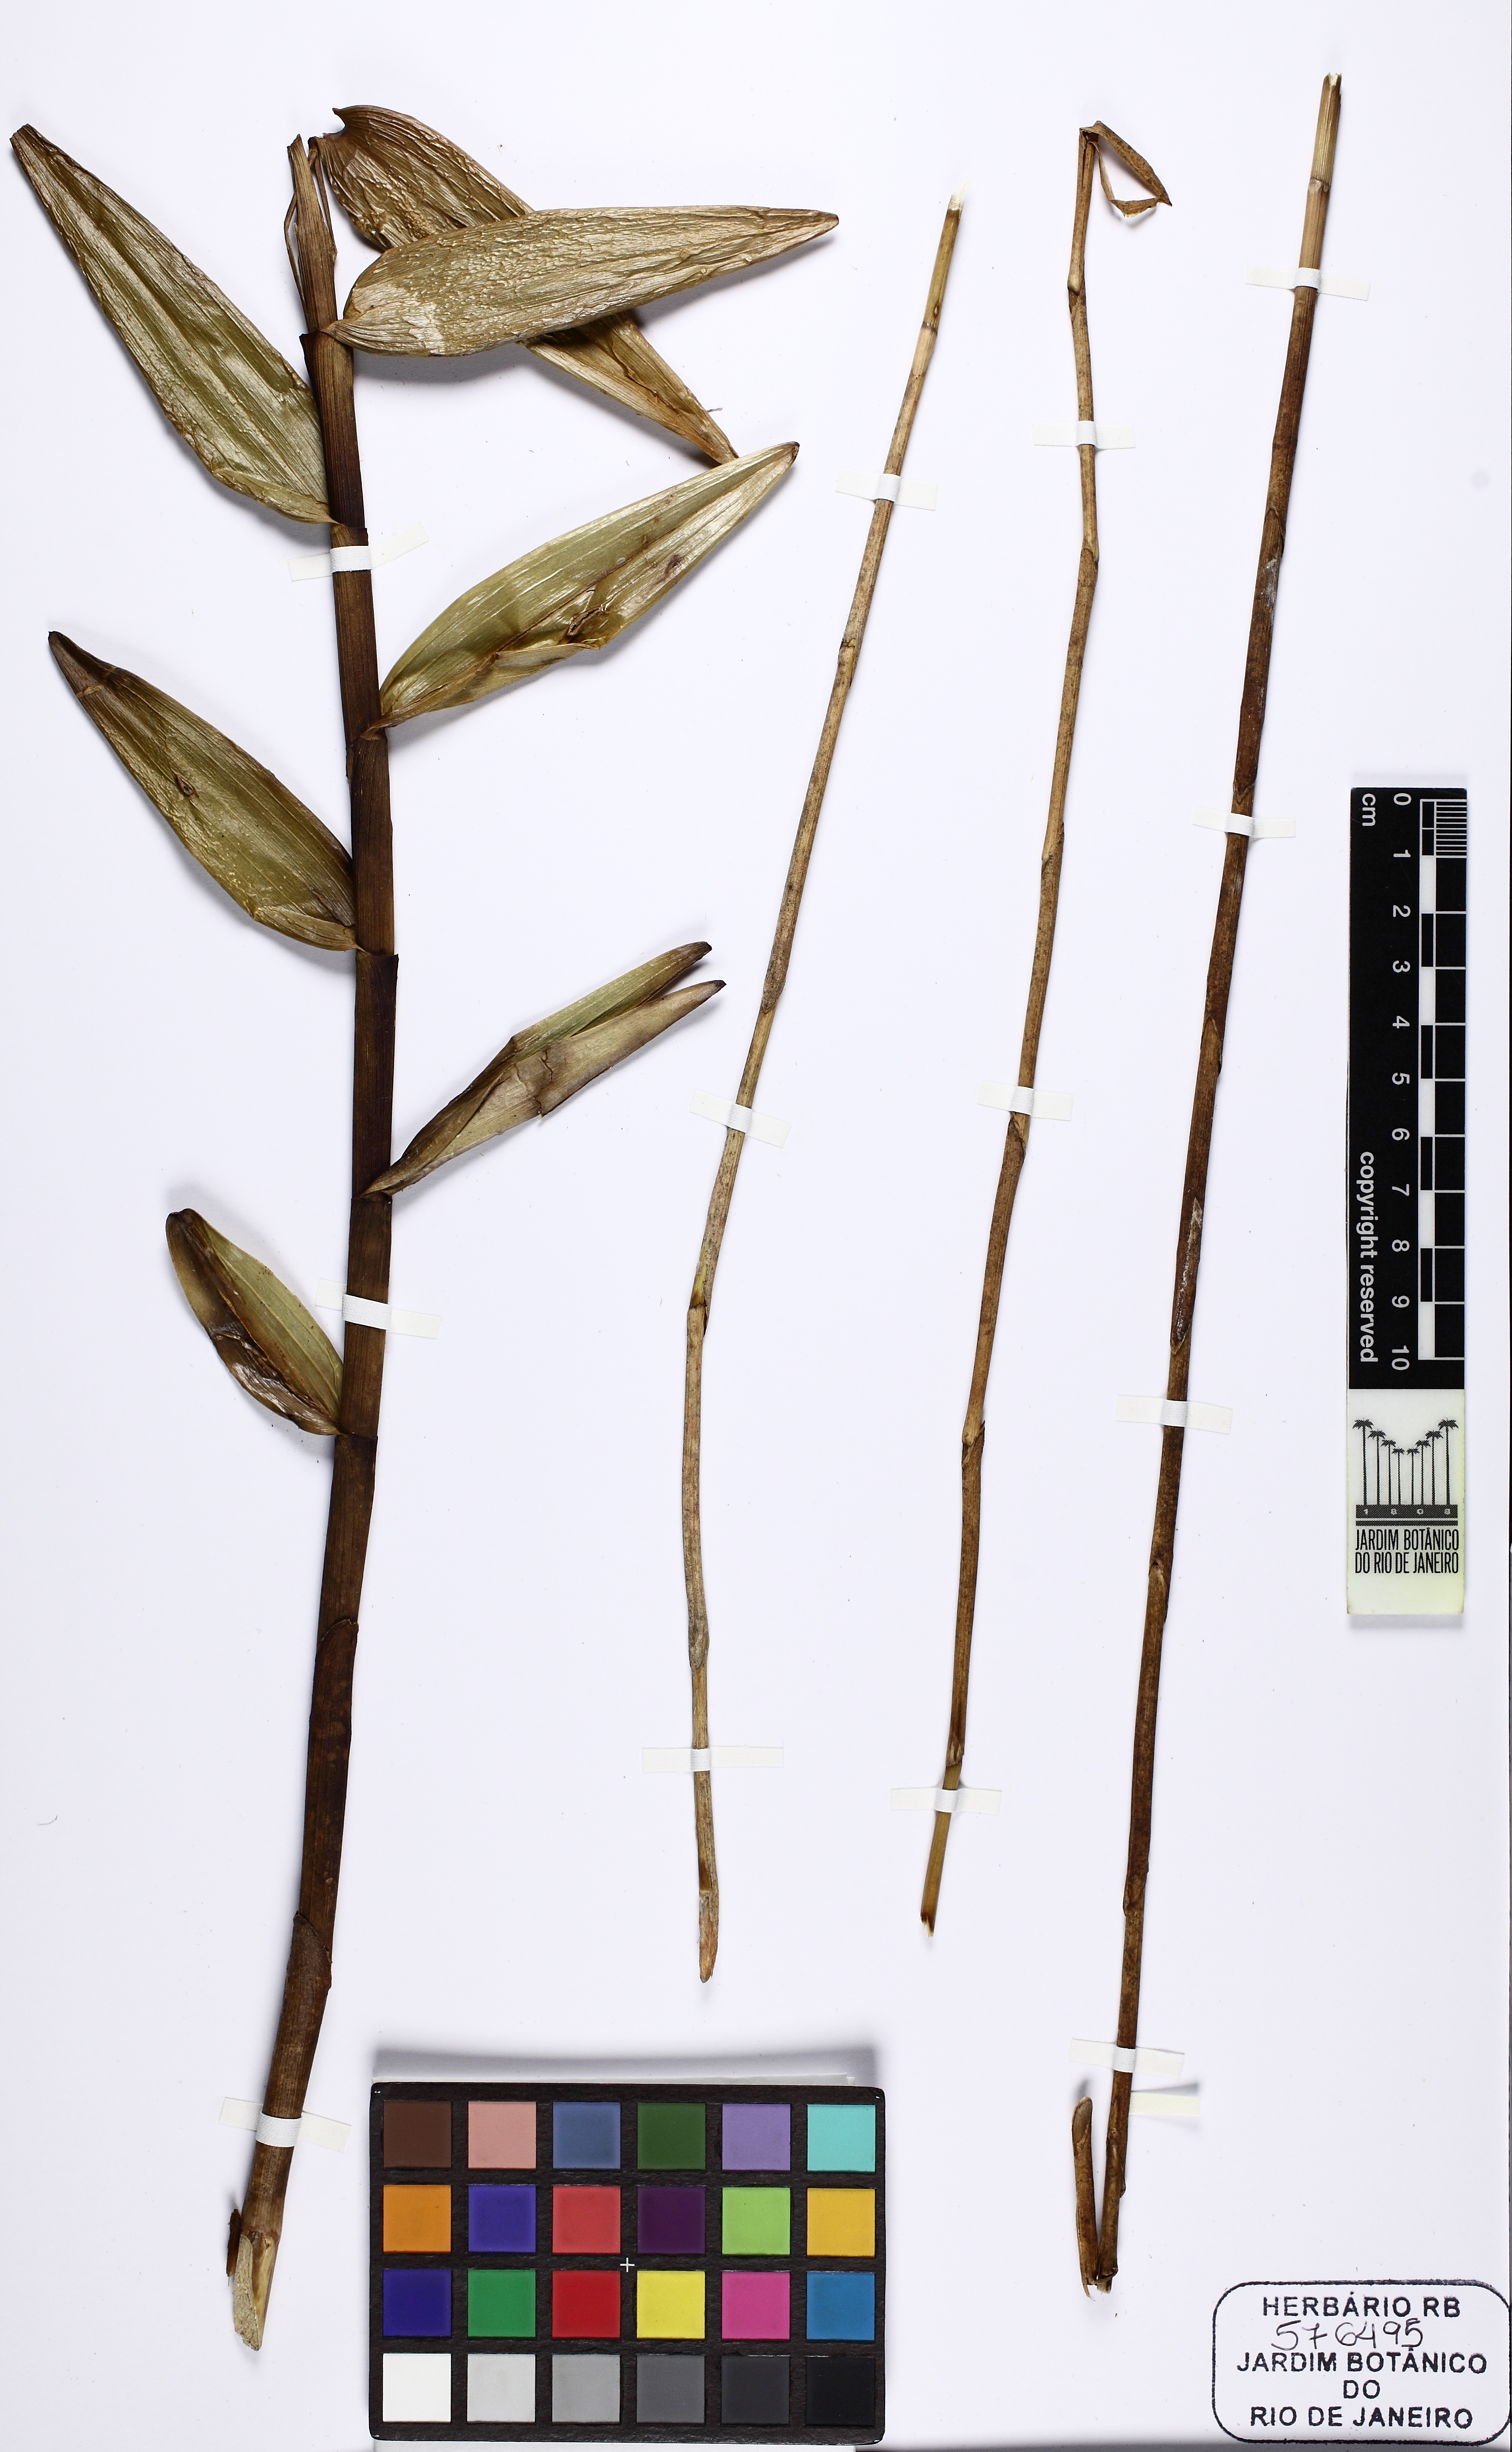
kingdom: Plantae
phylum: Tracheophyta
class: Liliopsida
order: Asparagales
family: Orchidaceae
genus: Epidendrum
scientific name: Epidendrum orchidiflorum
